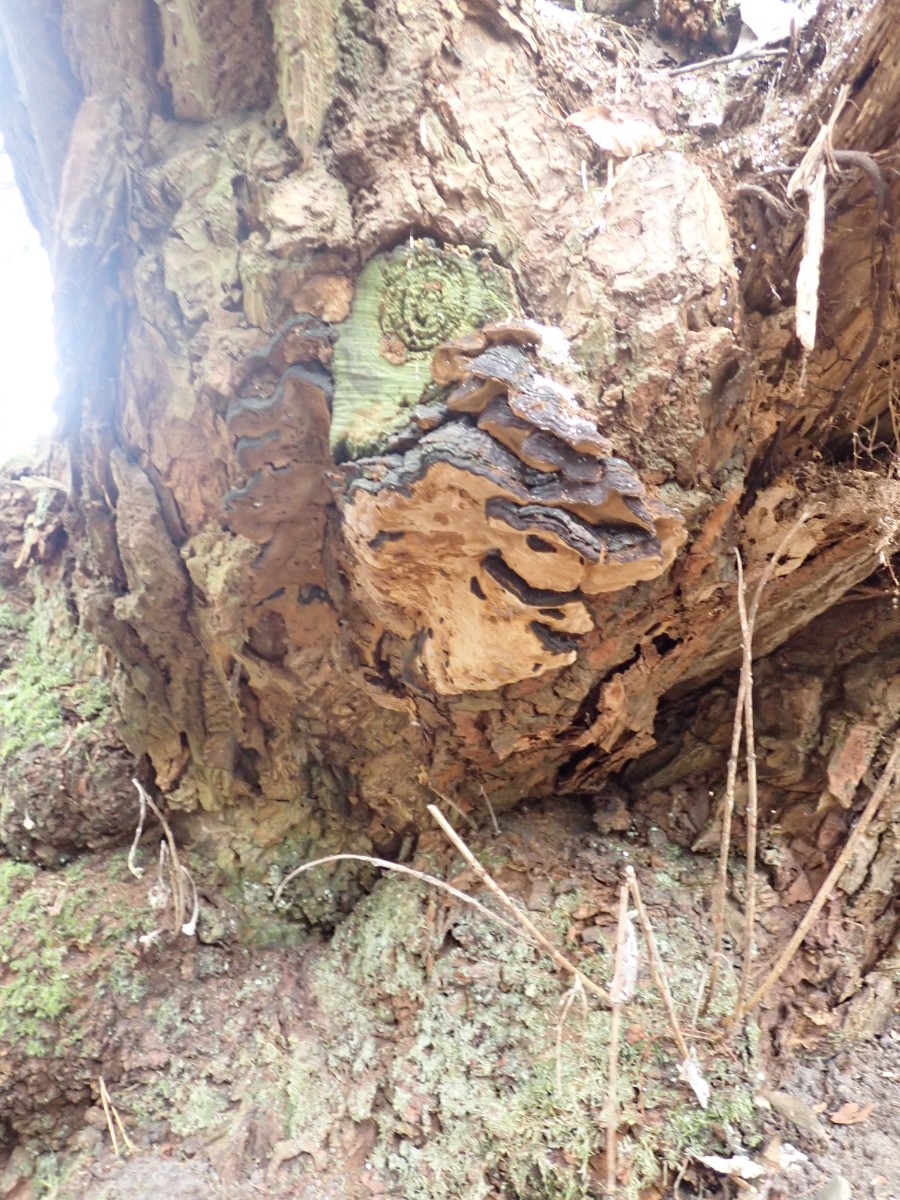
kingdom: Fungi
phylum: Basidiomycota
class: Agaricomycetes
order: Hymenochaetales
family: Hymenochaetaceae
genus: Phellinopsis
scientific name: Phellinopsis conchata
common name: pile-ildporesvamp
